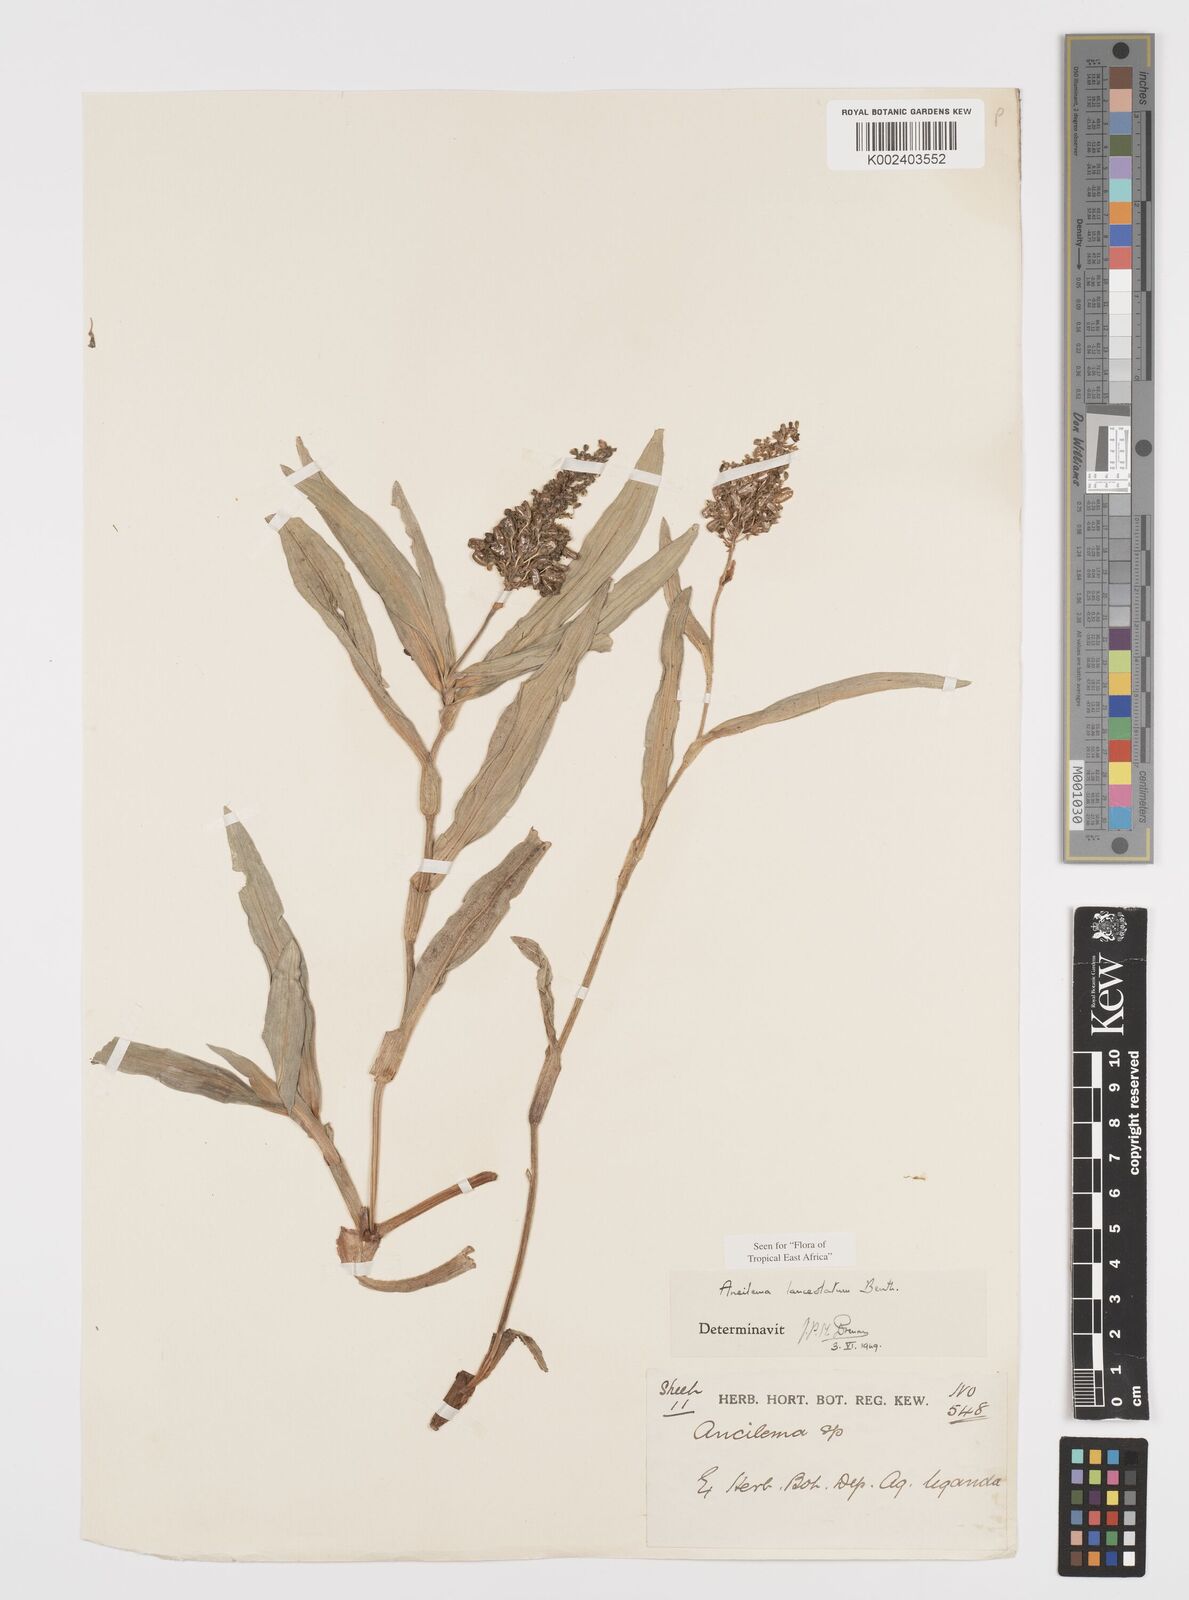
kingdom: Plantae
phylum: Tracheophyta
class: Liliopsida
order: Commelinales
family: Commelinaceae
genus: Aneilema
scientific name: Aneilema lanceolatum
